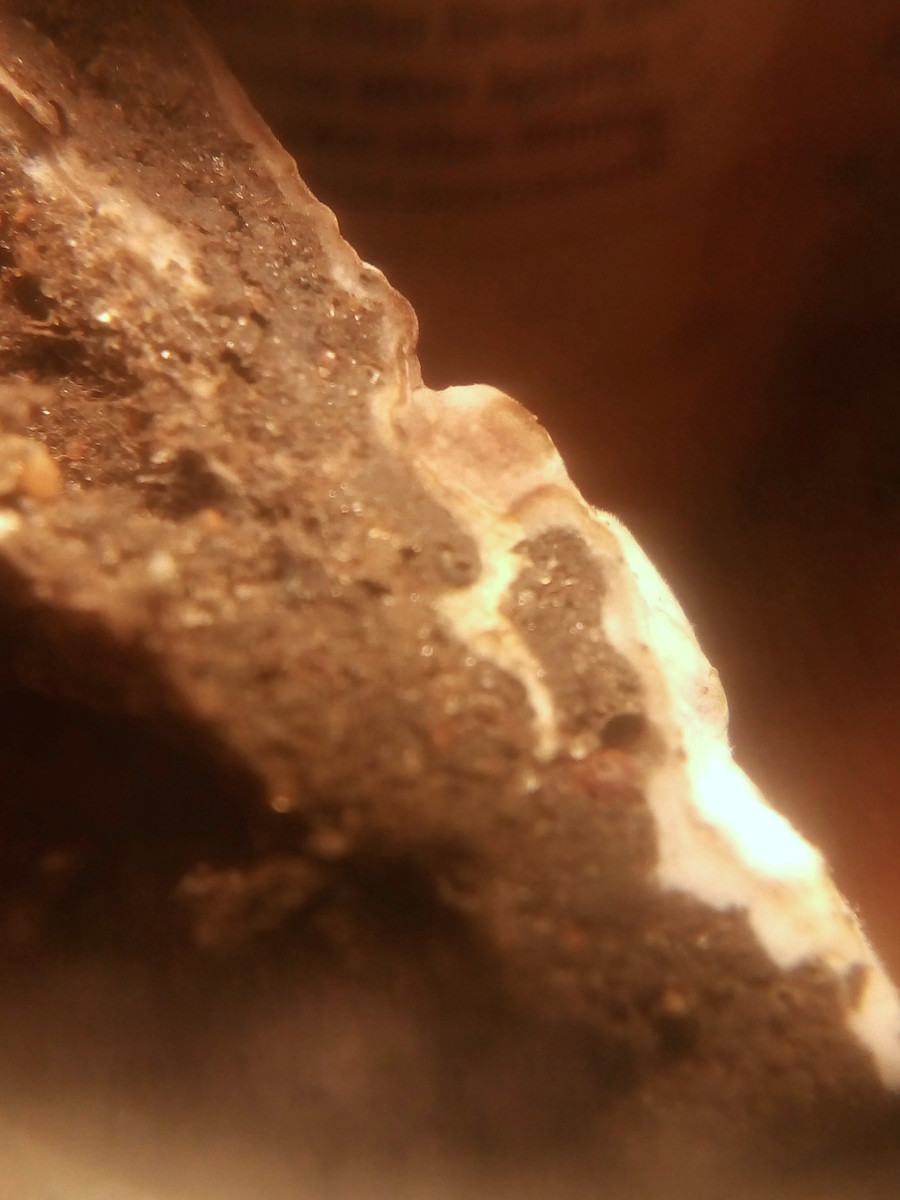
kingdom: Fungi
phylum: Basidiomycota
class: Agaricomycetes
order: Thelephorales
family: Thelephoraceae
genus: Tomentella
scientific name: Tomentella
